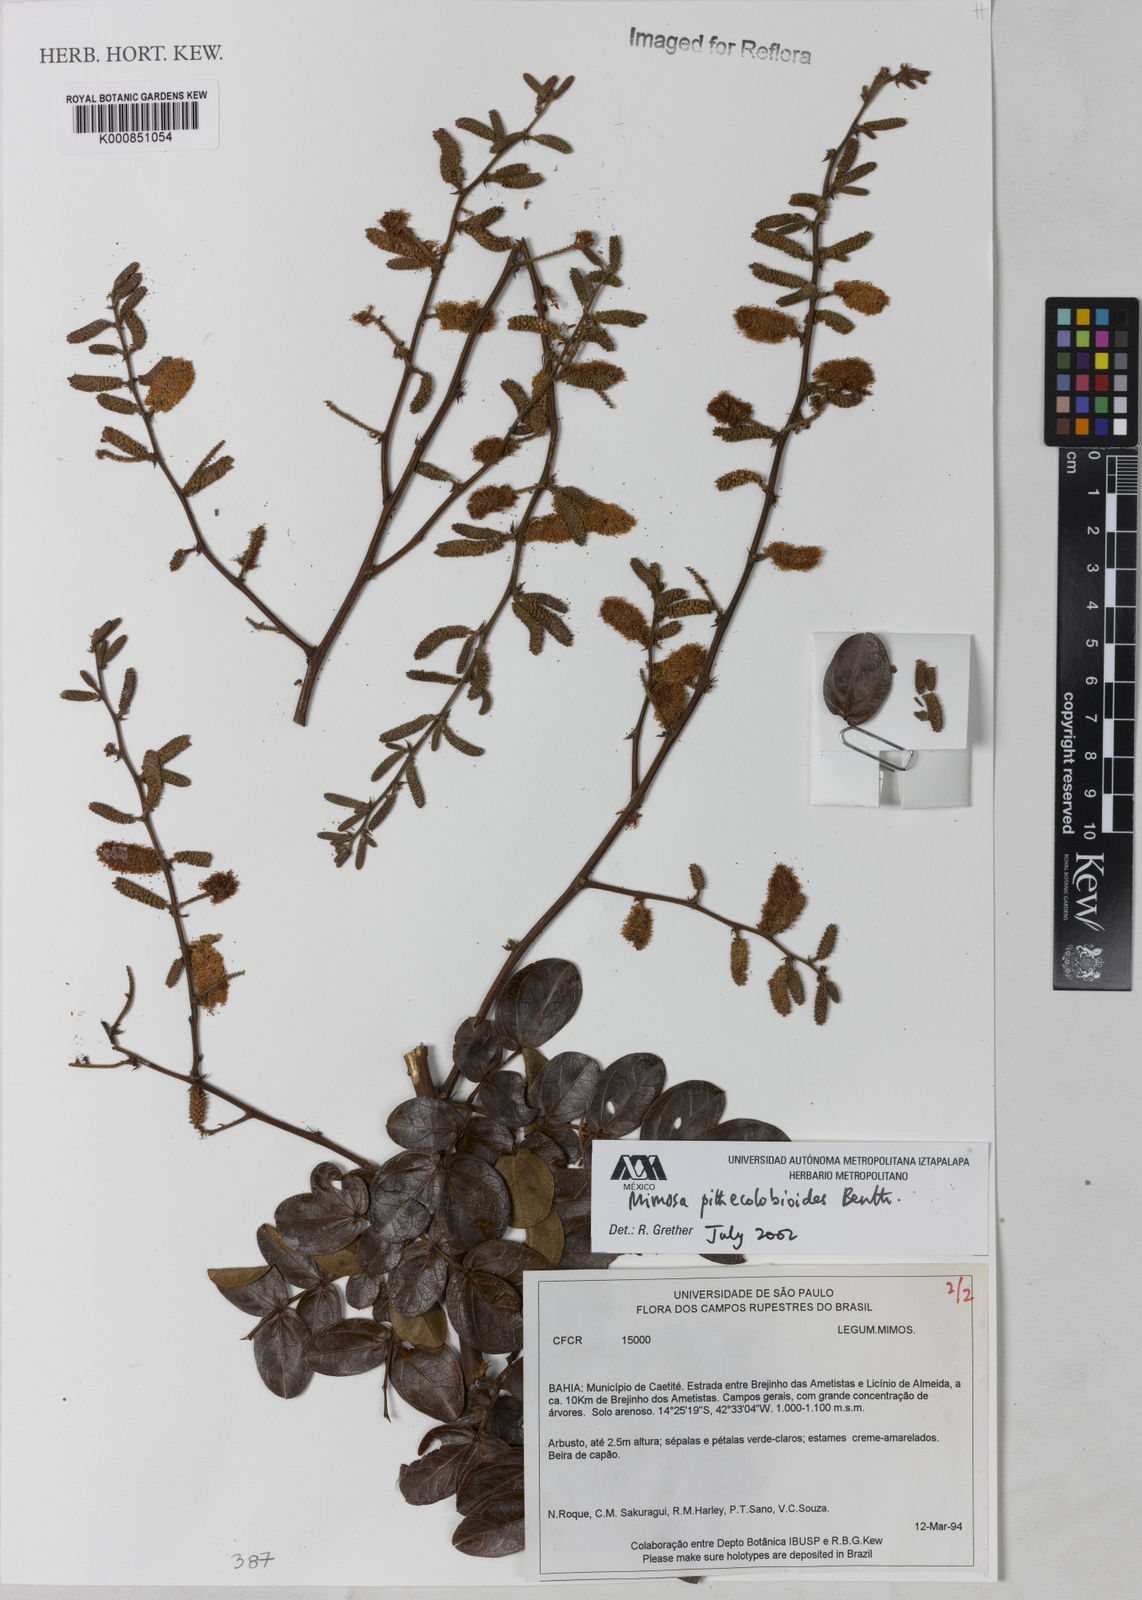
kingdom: Plantae
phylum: Tracheophyta
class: Magnoliopsida
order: Fabales
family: Fabaceae
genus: Mimosa
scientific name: Mimosa pithecolobioides
